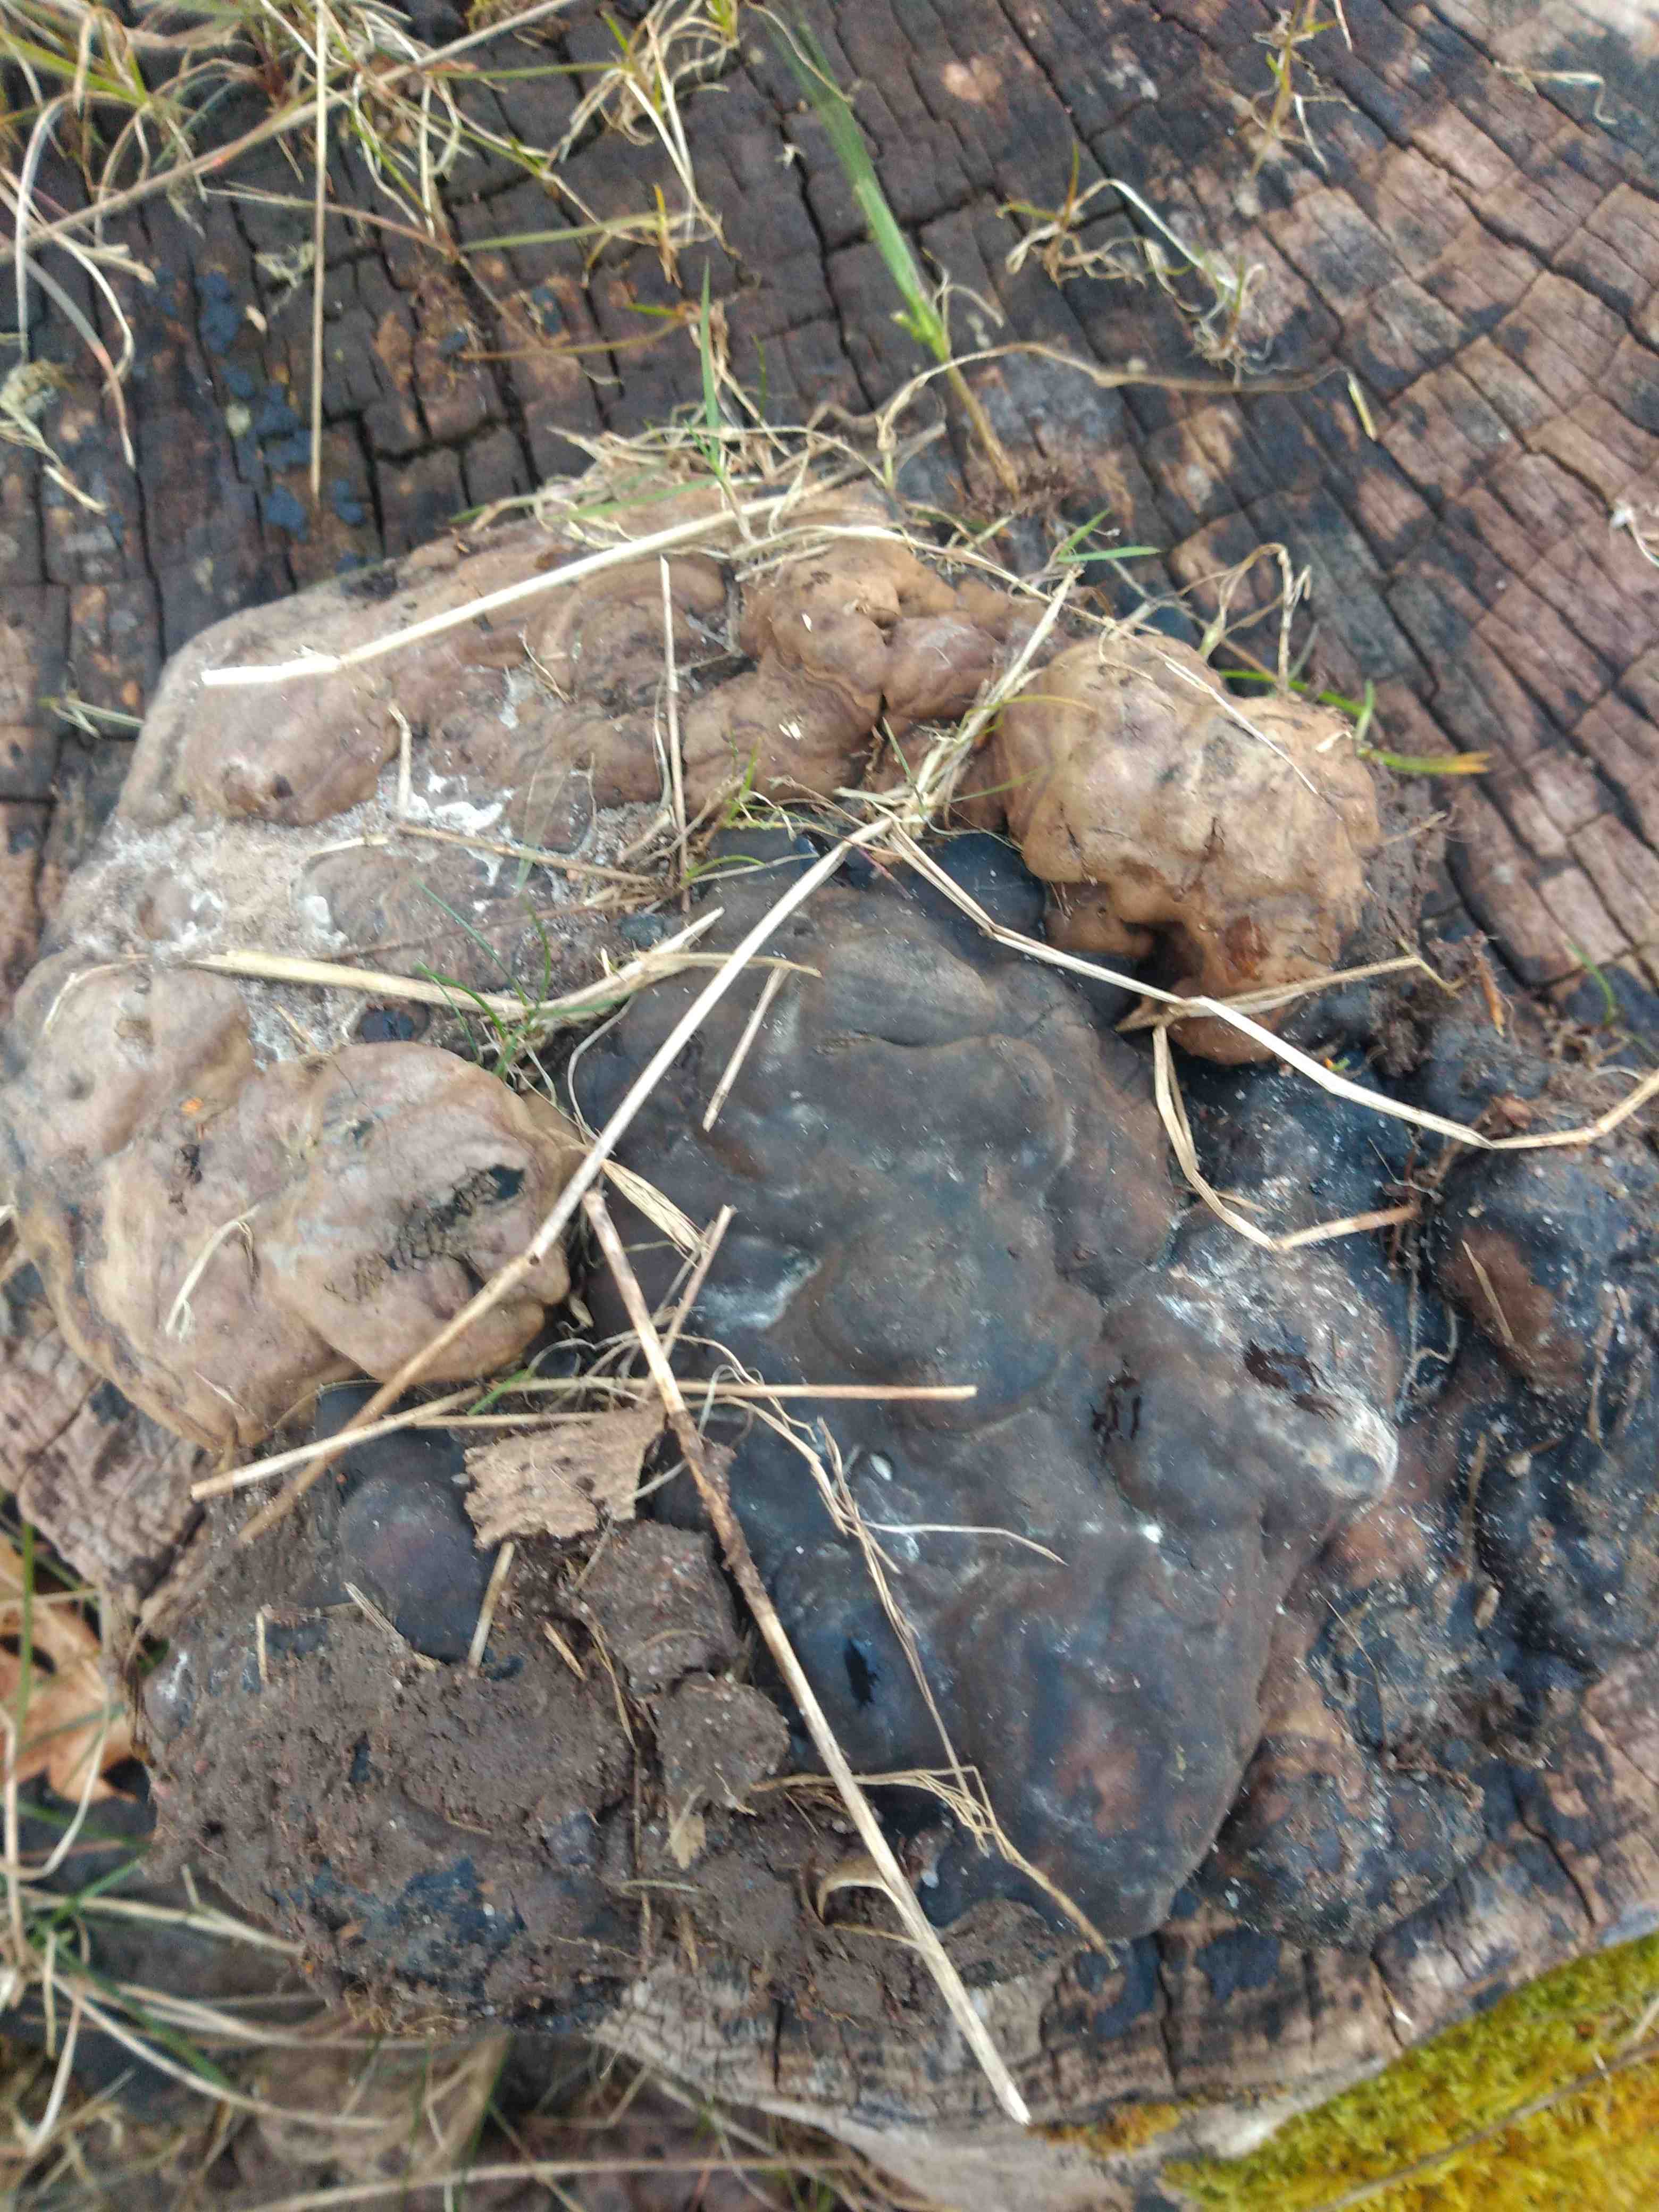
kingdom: Fungi
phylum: Basidiomycota
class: Agaricomycetes
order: Polyporales
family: Polyporaceae
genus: Ganoderma
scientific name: Ganoderma
